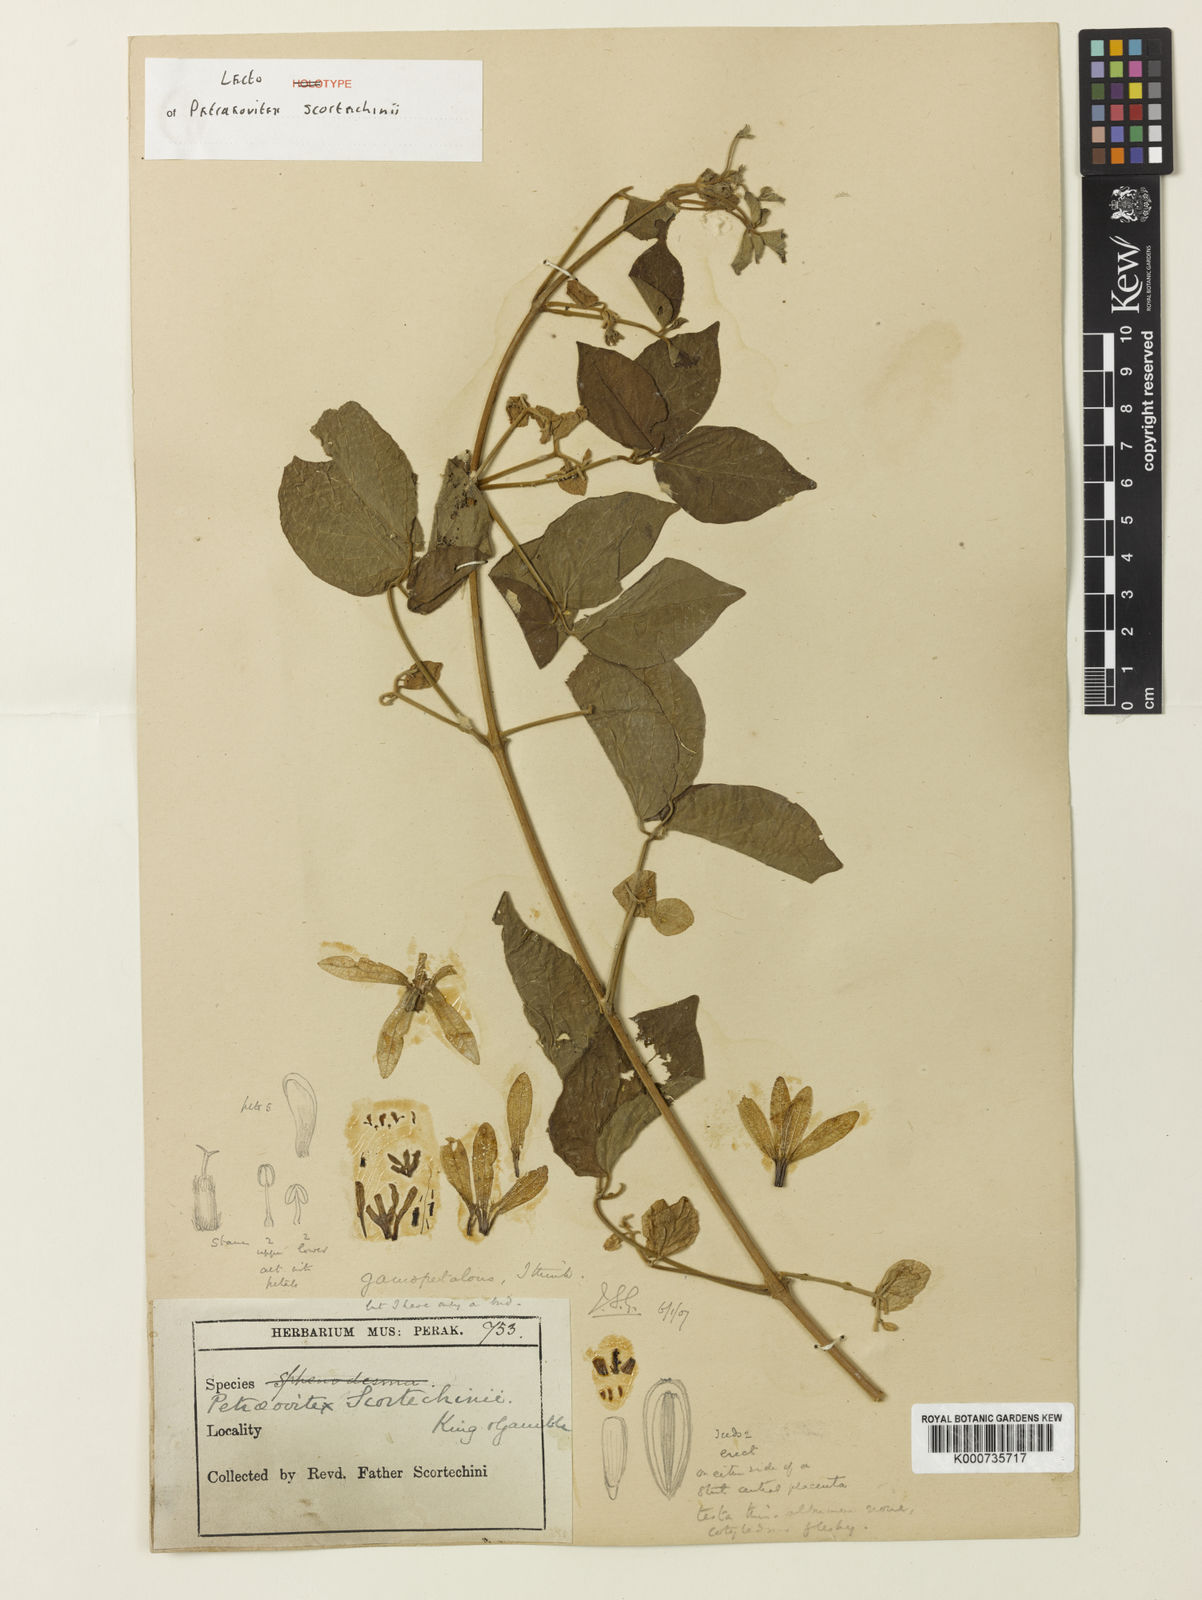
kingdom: Plantae
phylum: Tracheophyta
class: Magnoliopsida
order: Lamiales
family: Lamiaceae
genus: Petraeovitex
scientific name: Petraeovitex scortechinii
